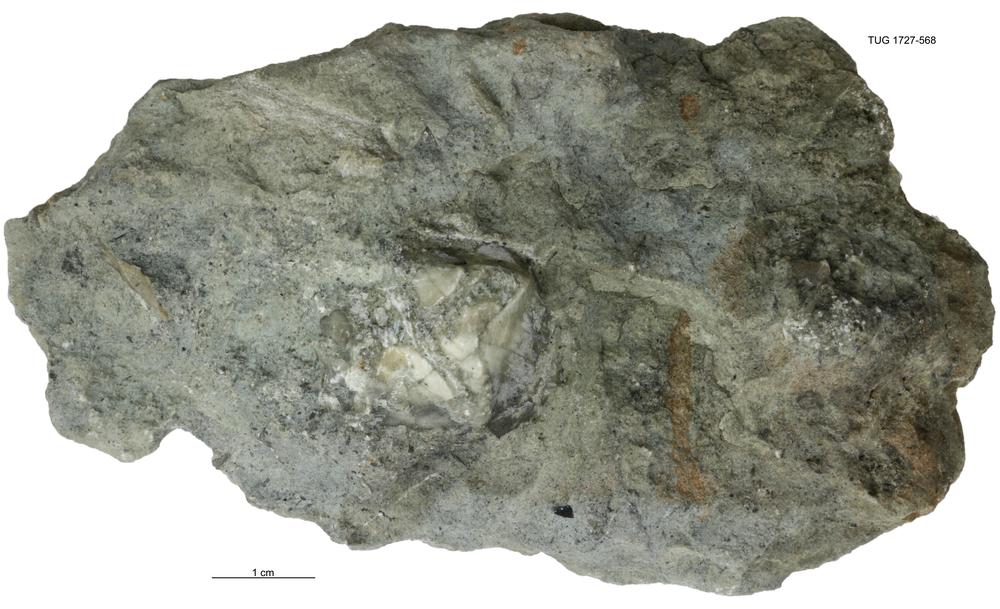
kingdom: Animalia
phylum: Echinodermata
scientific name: Echinodermata
